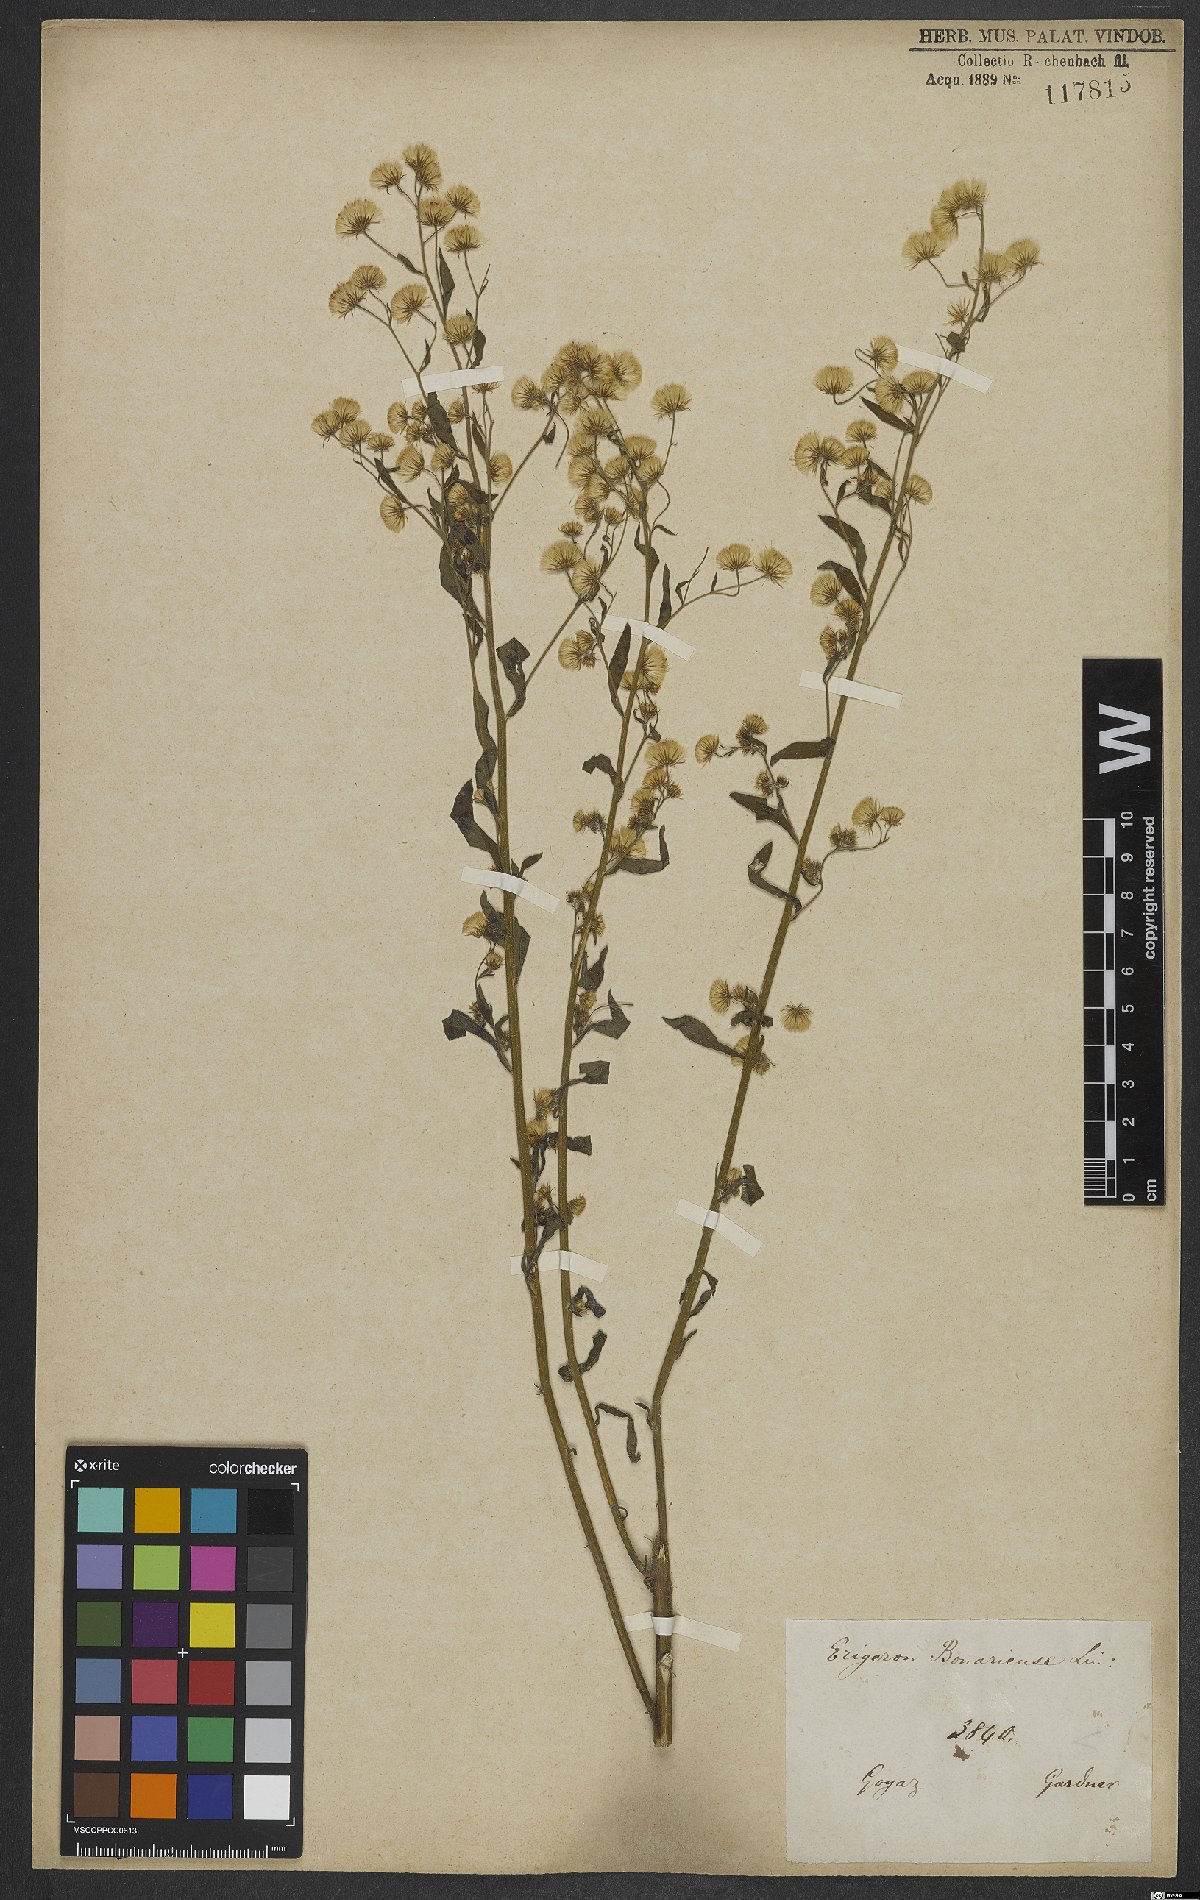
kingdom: Plantae
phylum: Tracheophyta
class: Magnoliopsida
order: Asterales
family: Asteraceae
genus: Erigeron
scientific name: Erigeron bonariensis
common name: Argentine fleabane
